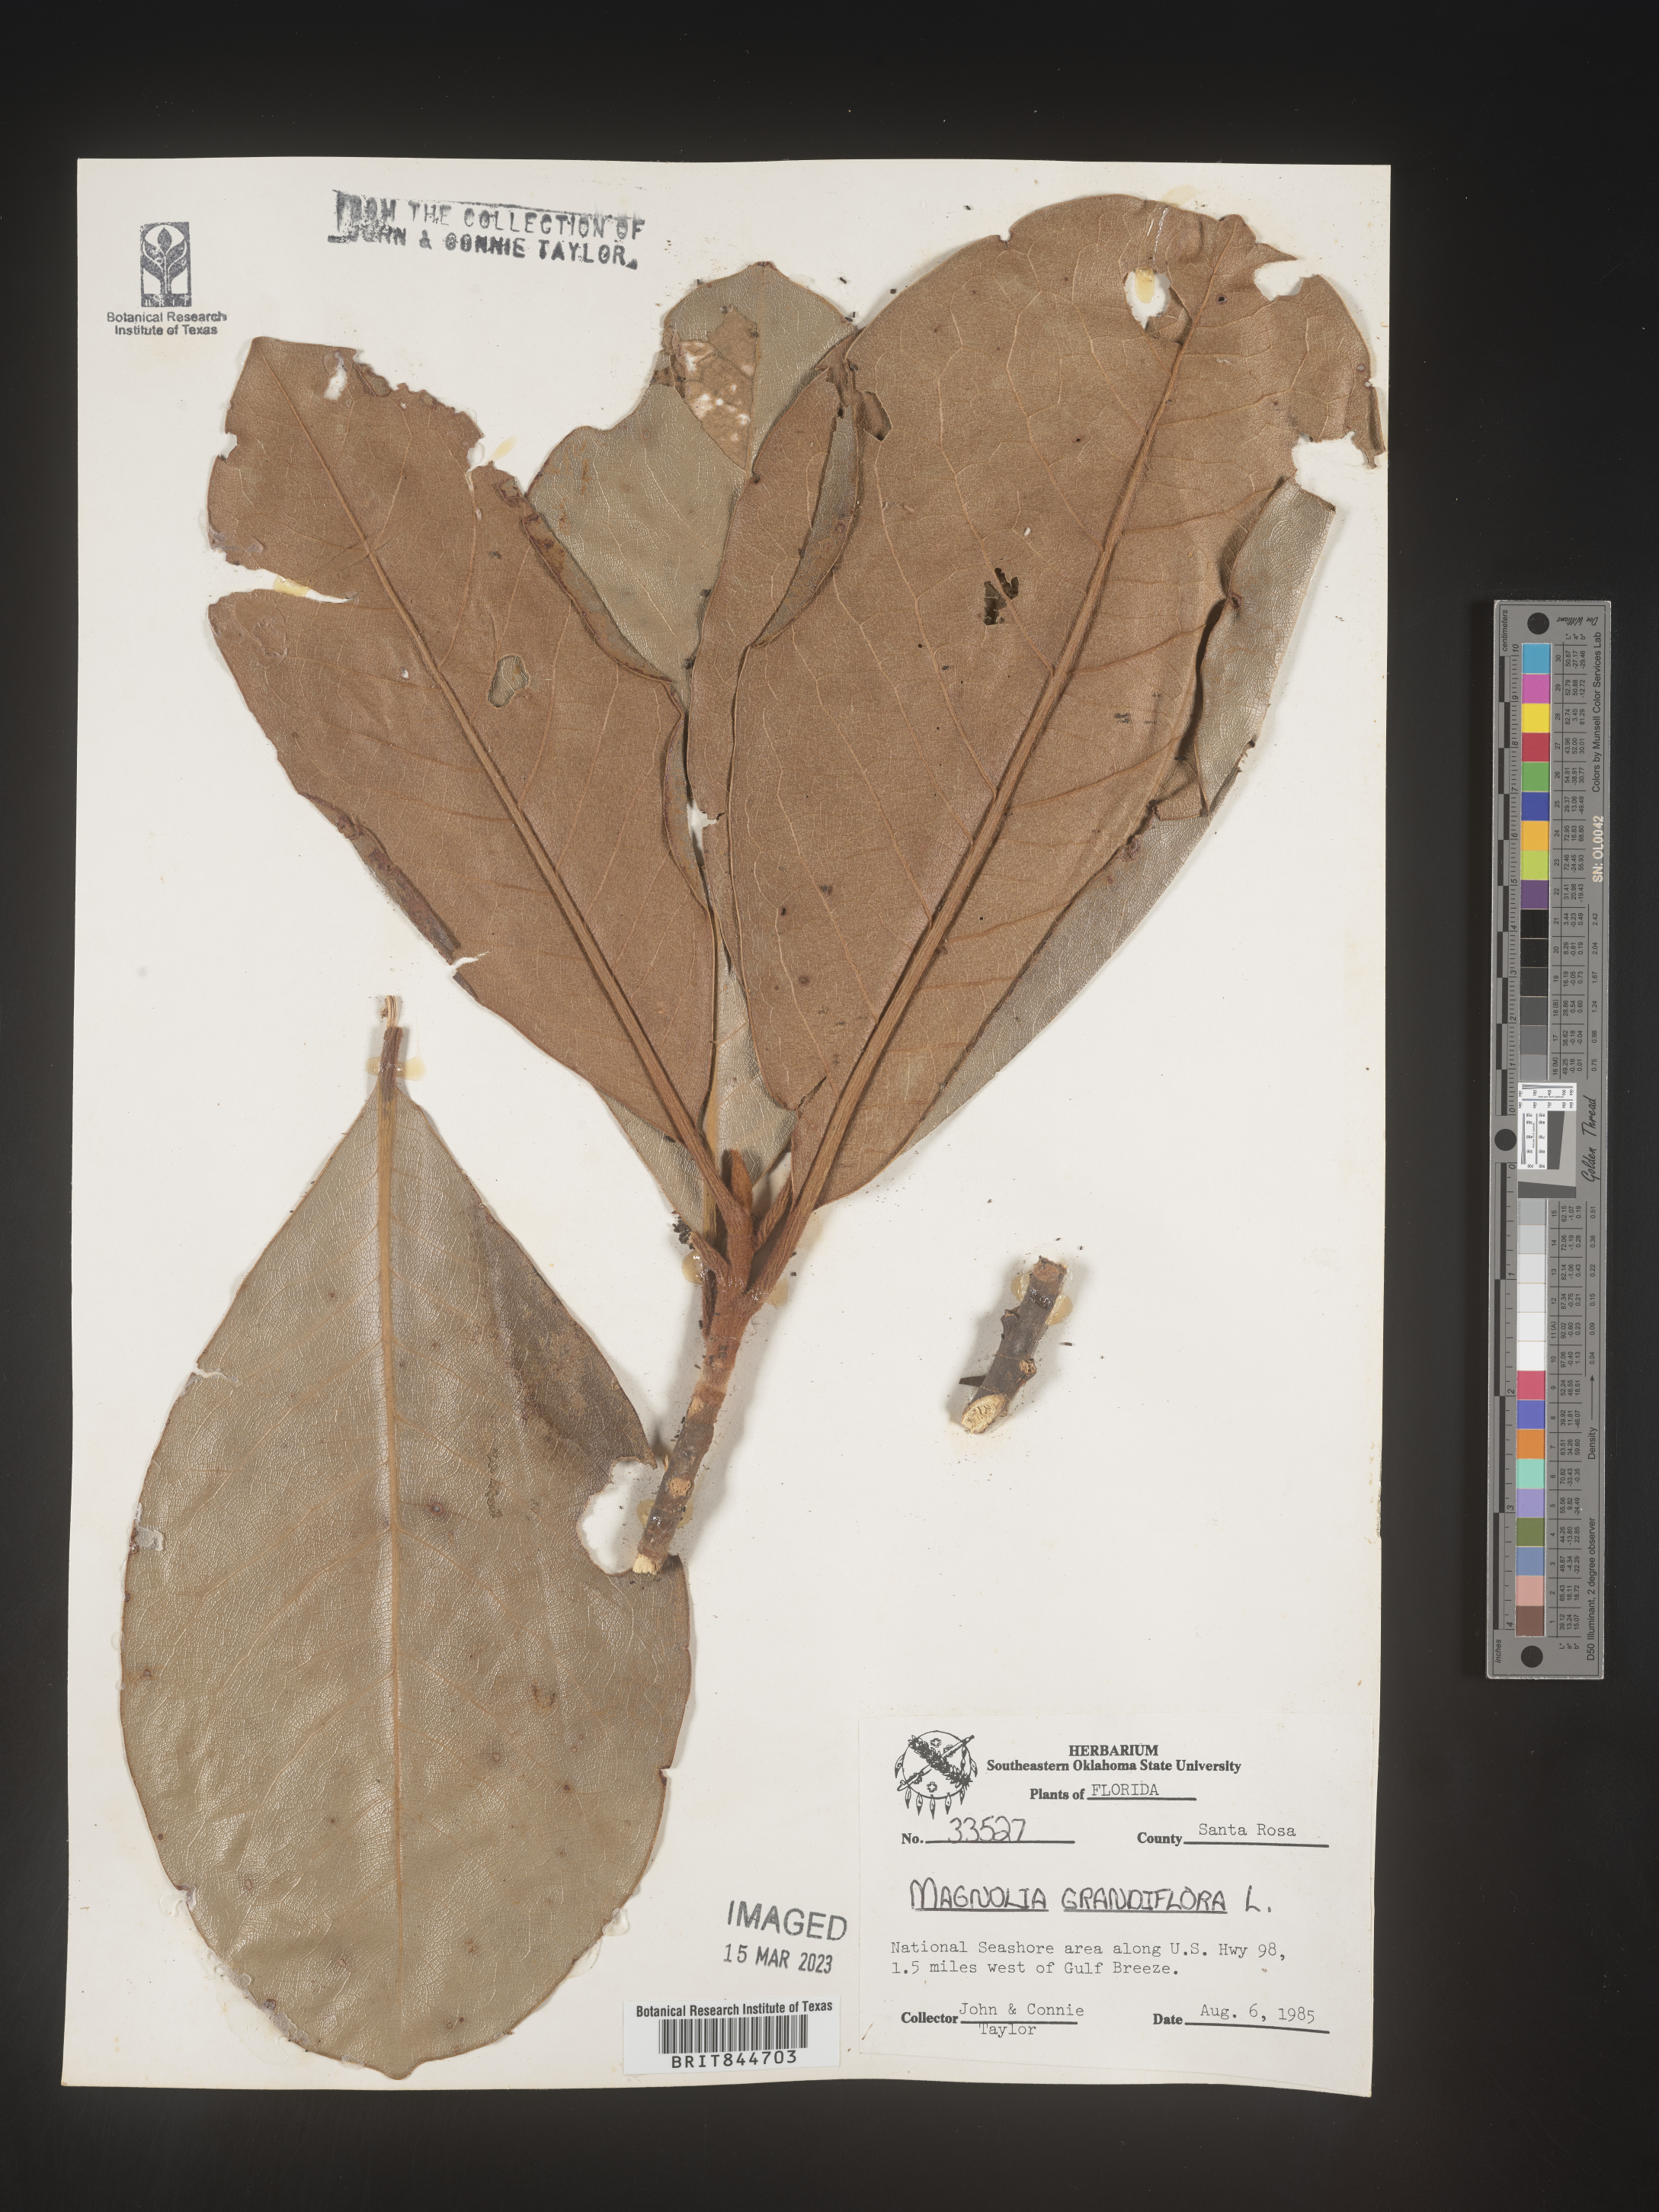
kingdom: Plantae
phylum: Tracheophyta
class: Magnoliopsida
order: Magnoliales
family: Magnoliaceae
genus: Magnolia
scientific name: Magnolia grandiflora
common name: Southern magnolia
